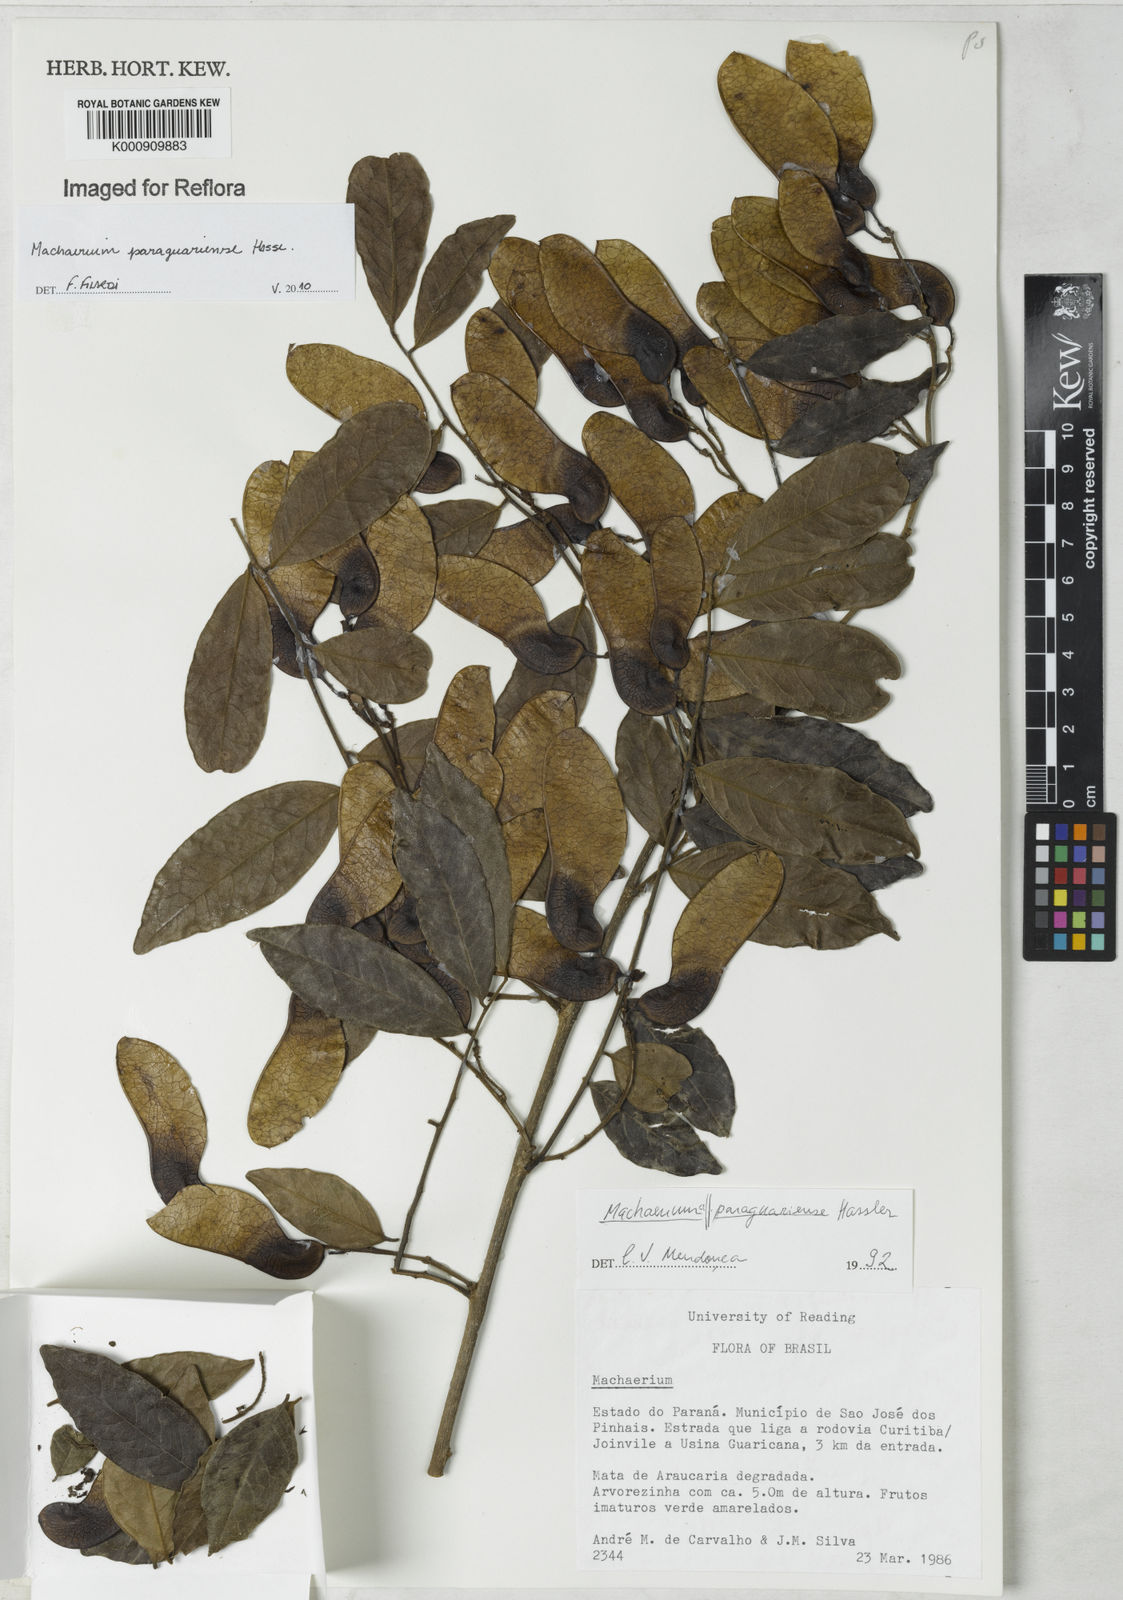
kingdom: Plantae
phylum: Tracheophyta
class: Magnoliopsida
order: Fabales
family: Fabaceae
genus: Machaerium
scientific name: Machaerium oblongifolium
